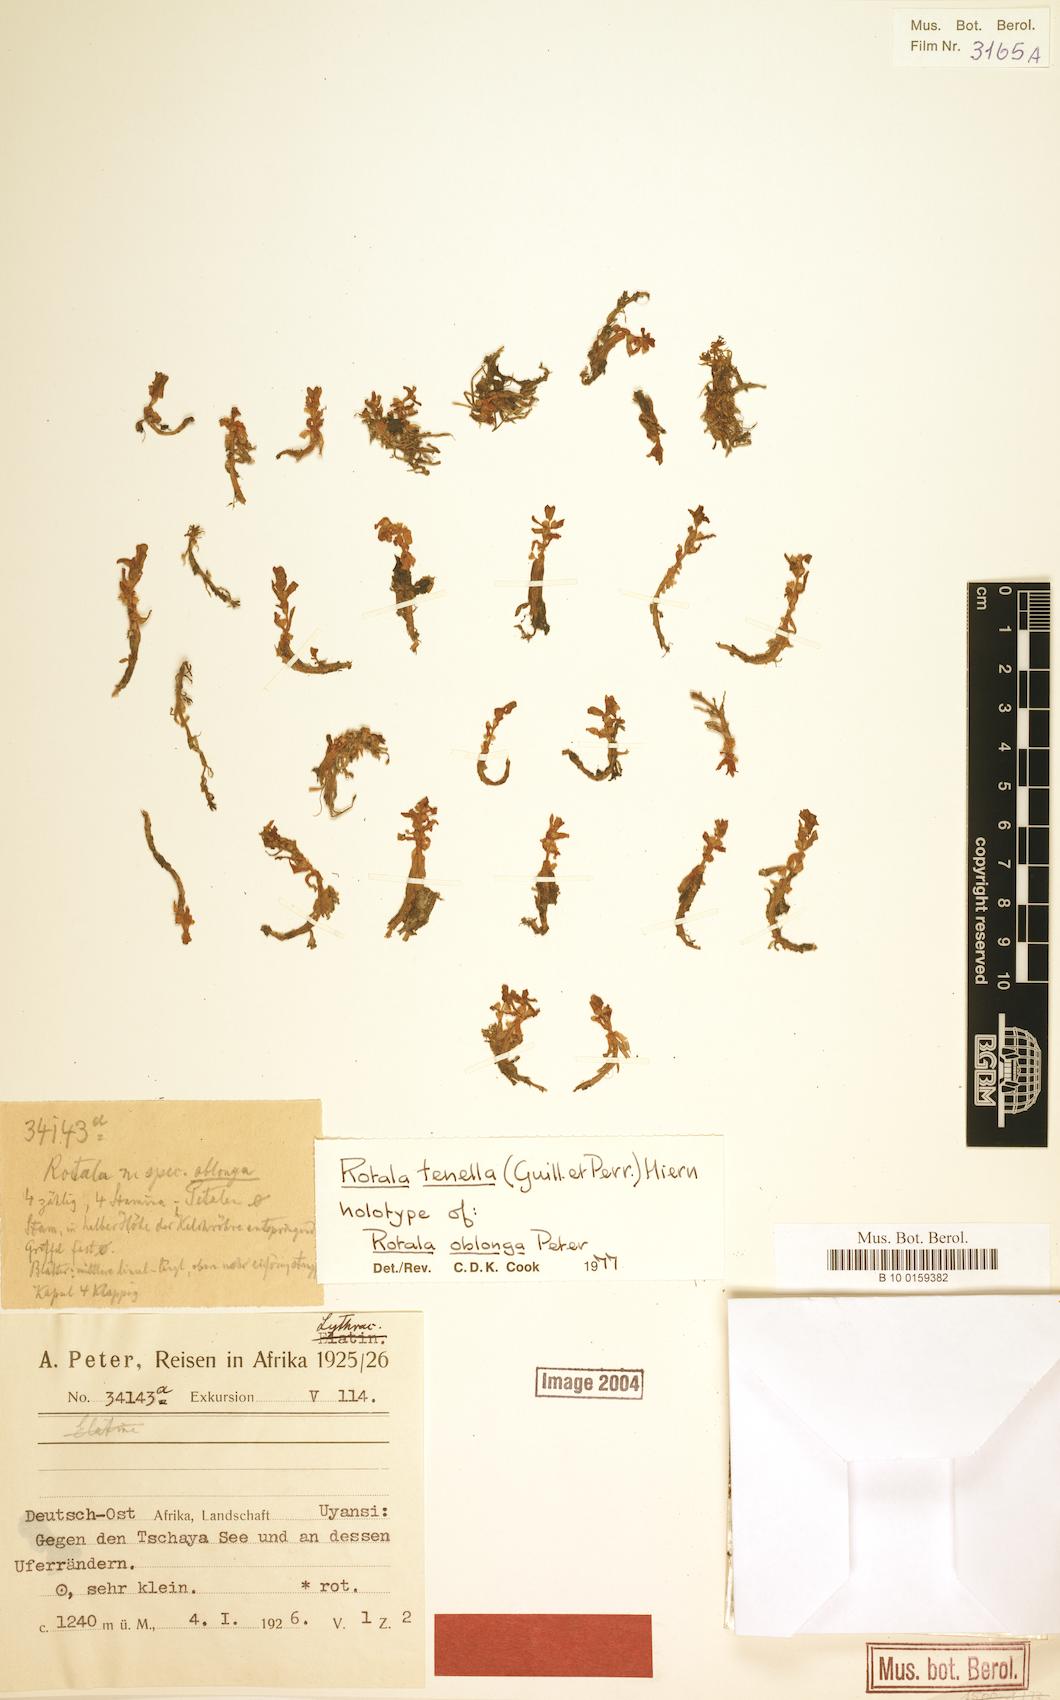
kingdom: Plantae
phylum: Tracheophyta
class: Magnoliopsida
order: Myrtales
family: Lythraceae
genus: Rotala
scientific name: Rotala tenella
